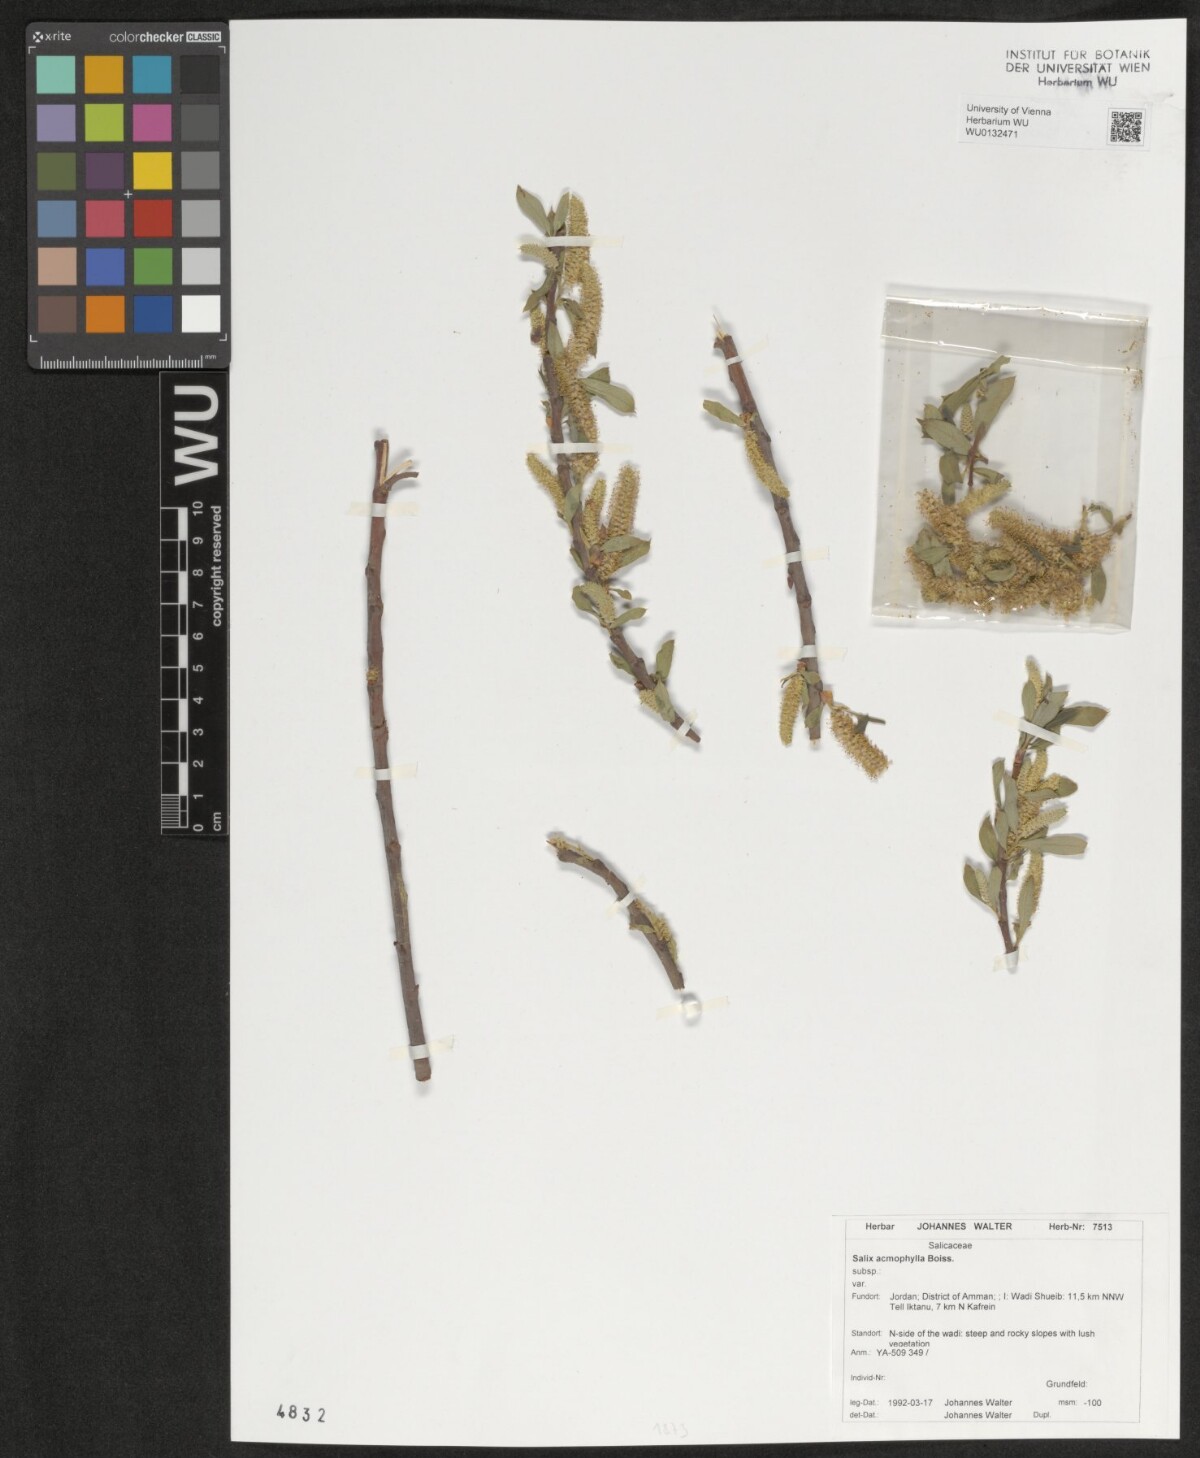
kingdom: Plantae
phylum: Tracheophyta
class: Magnoliopsida
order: Malpighiales
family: Salicaceae
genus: Salix
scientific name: Salix acmophylla
